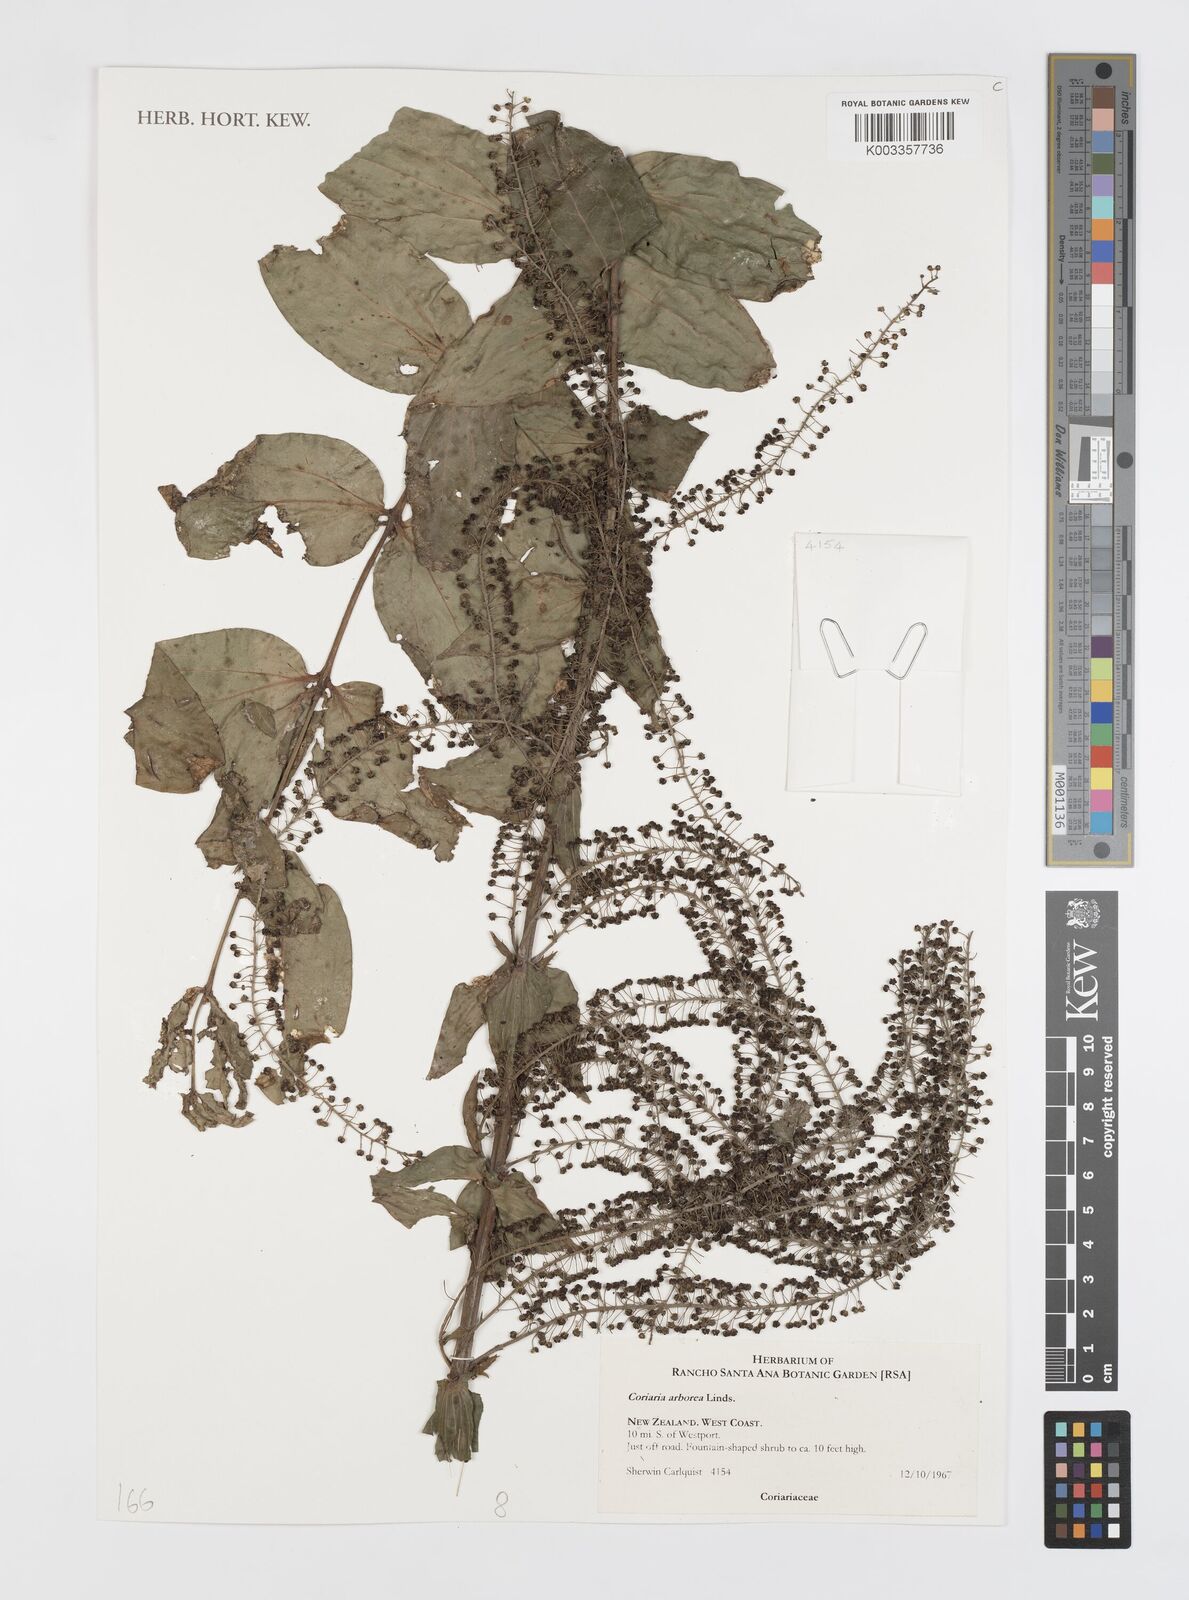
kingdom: Plantae
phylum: Tracheophyta
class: Magnoliopsida
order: Cucurbitales
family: Coriariaceae
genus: Coriaria
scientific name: Coriaria arborea
